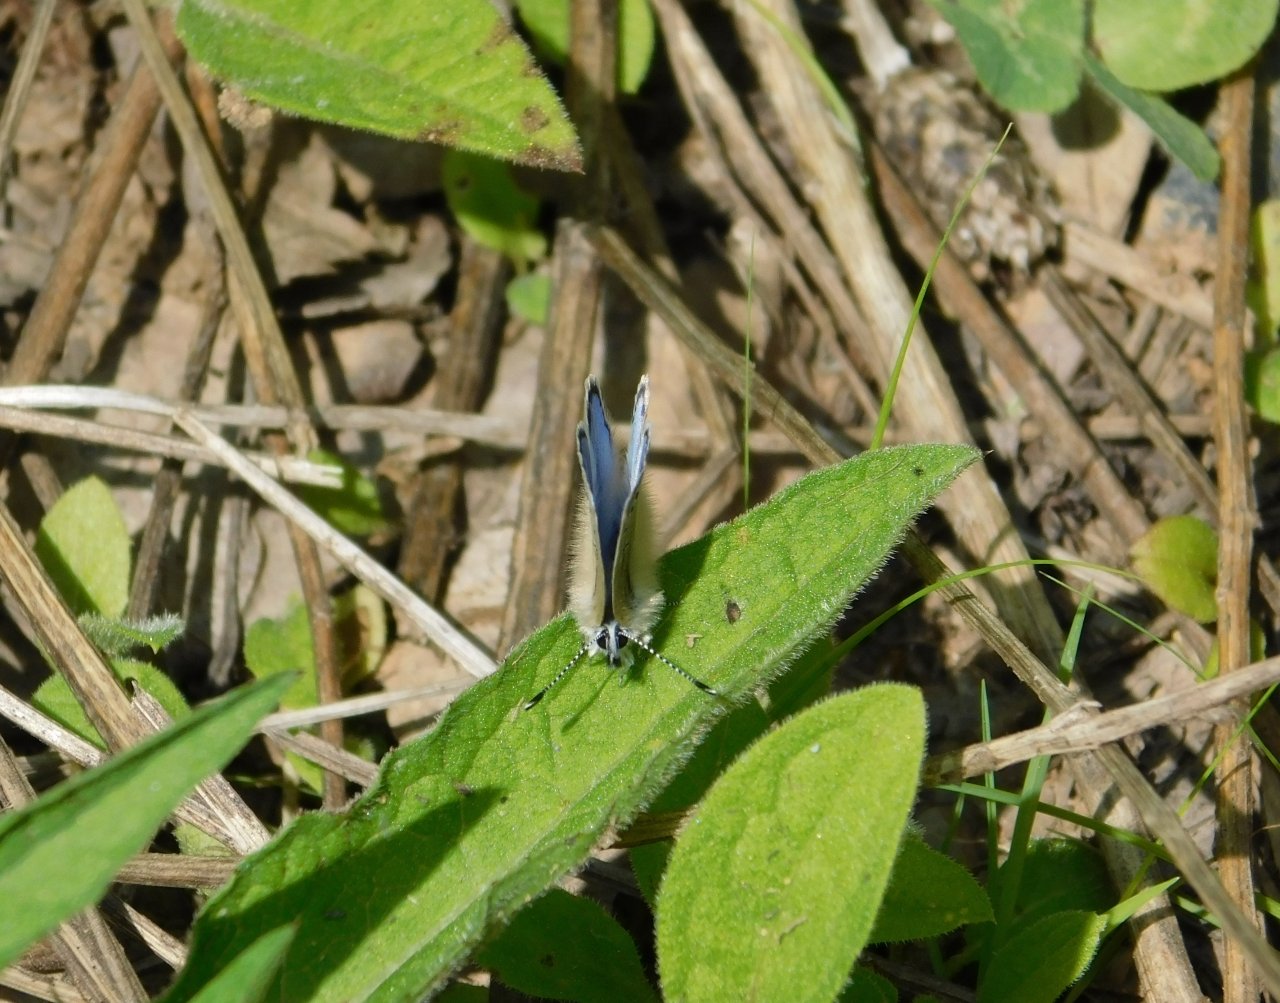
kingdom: Animalia
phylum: Arthropoda
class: Insecta
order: Lepidoptera
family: Lycaenidae
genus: Glaucopsyche
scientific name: Glaucopsyche lygdamus
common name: Silvery Blue
